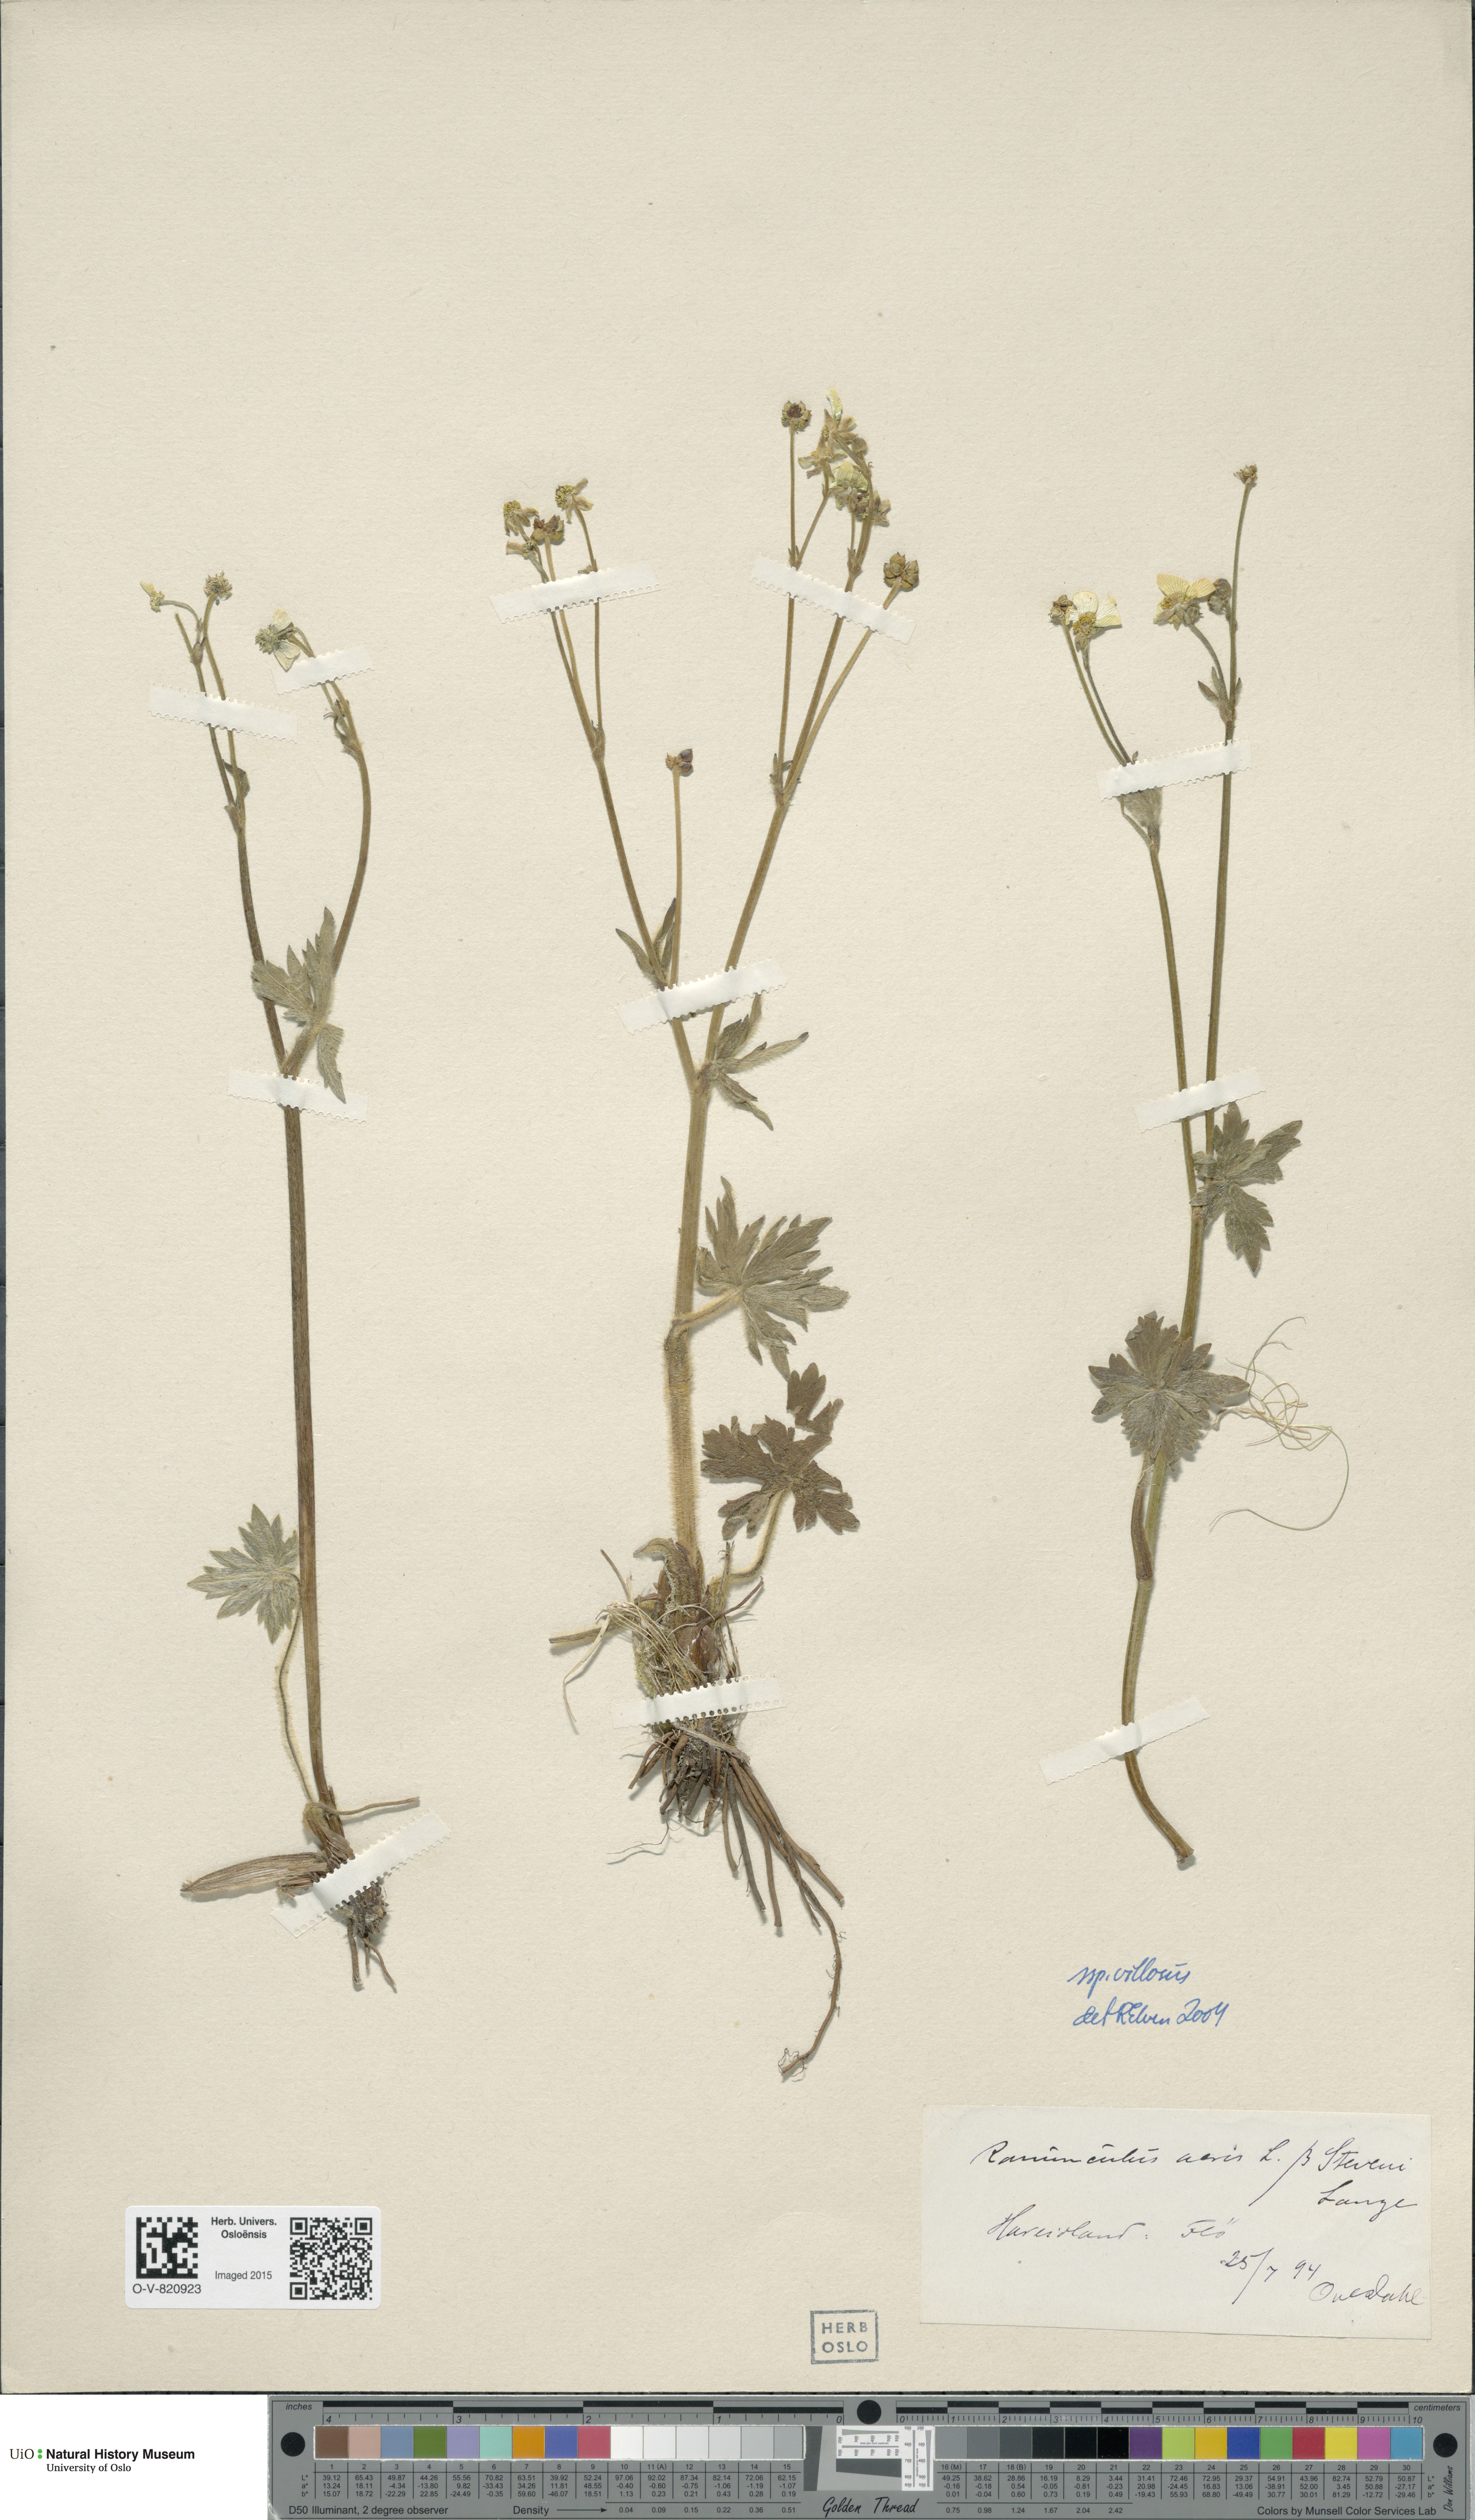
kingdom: Plantae
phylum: Tracheophyta
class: Magnoliopsida
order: Ranunculales
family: Ranunculaceae
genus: Ranunculus
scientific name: Ranunculus propinquus
